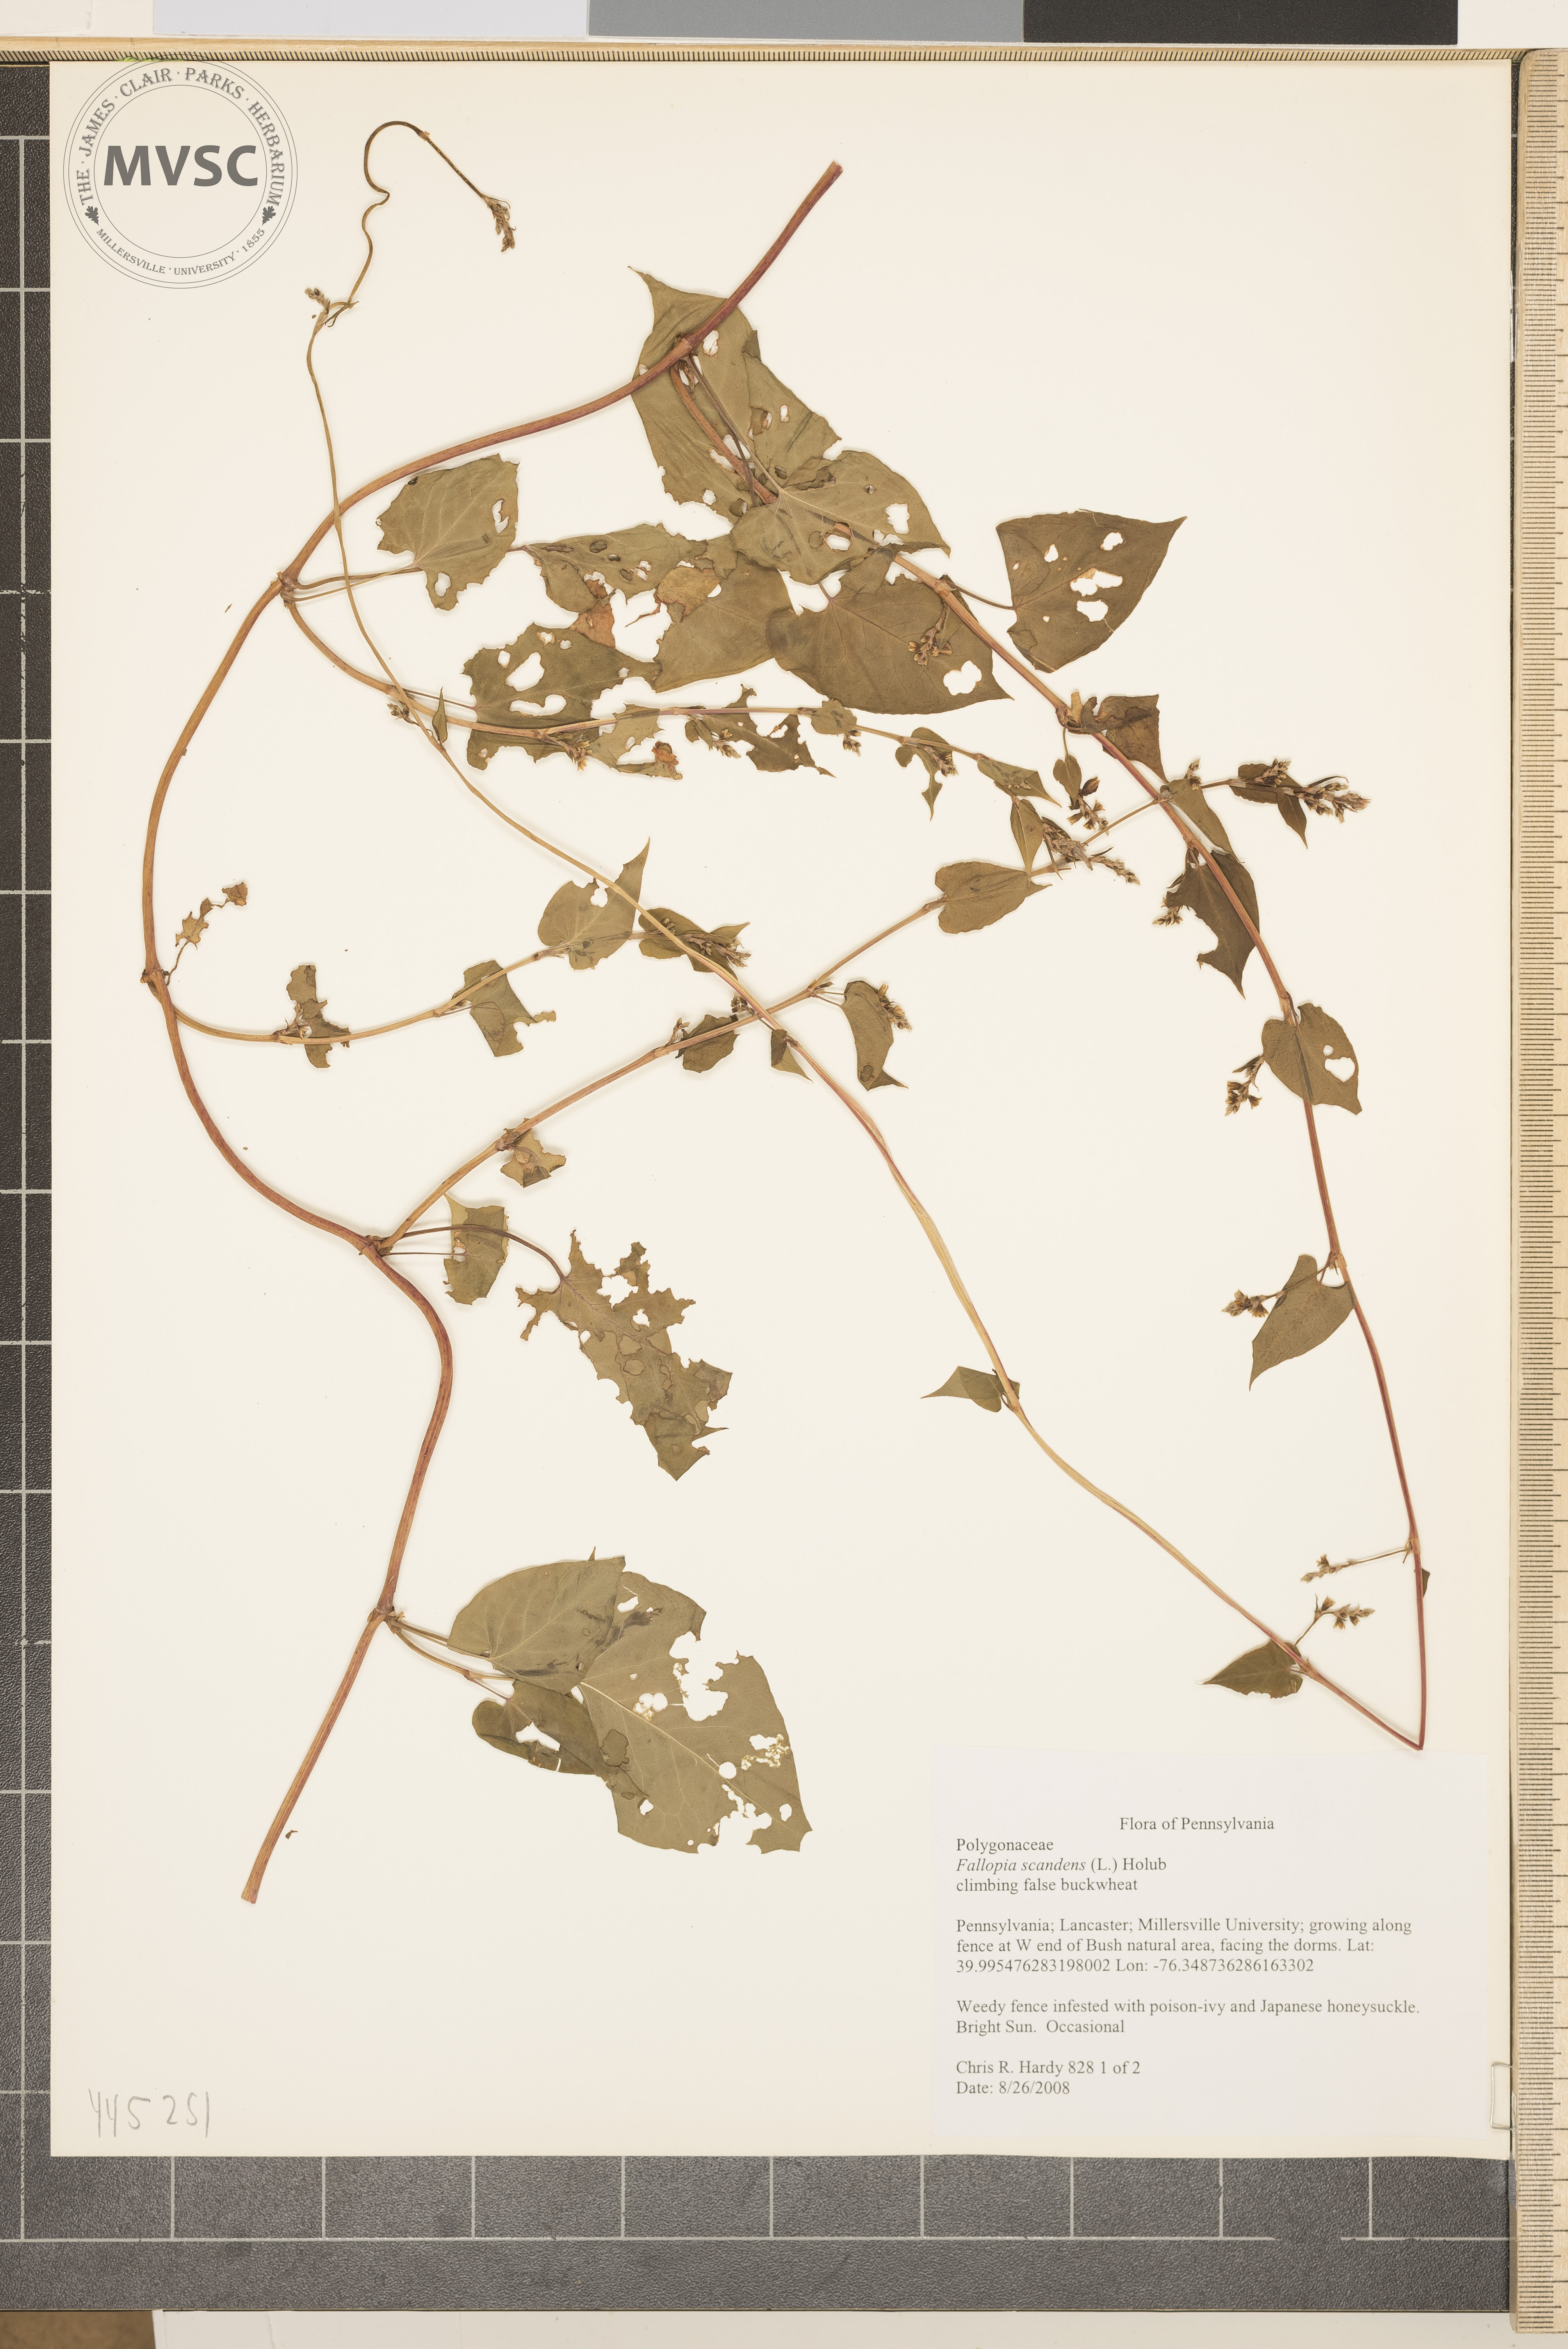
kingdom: Plantae
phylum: Tracheophyta
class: Magnoliopsida
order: Caryophyllales
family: Polygonaceae
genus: Fallopia
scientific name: Fallopia scandens
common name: climbing false buckwheat
